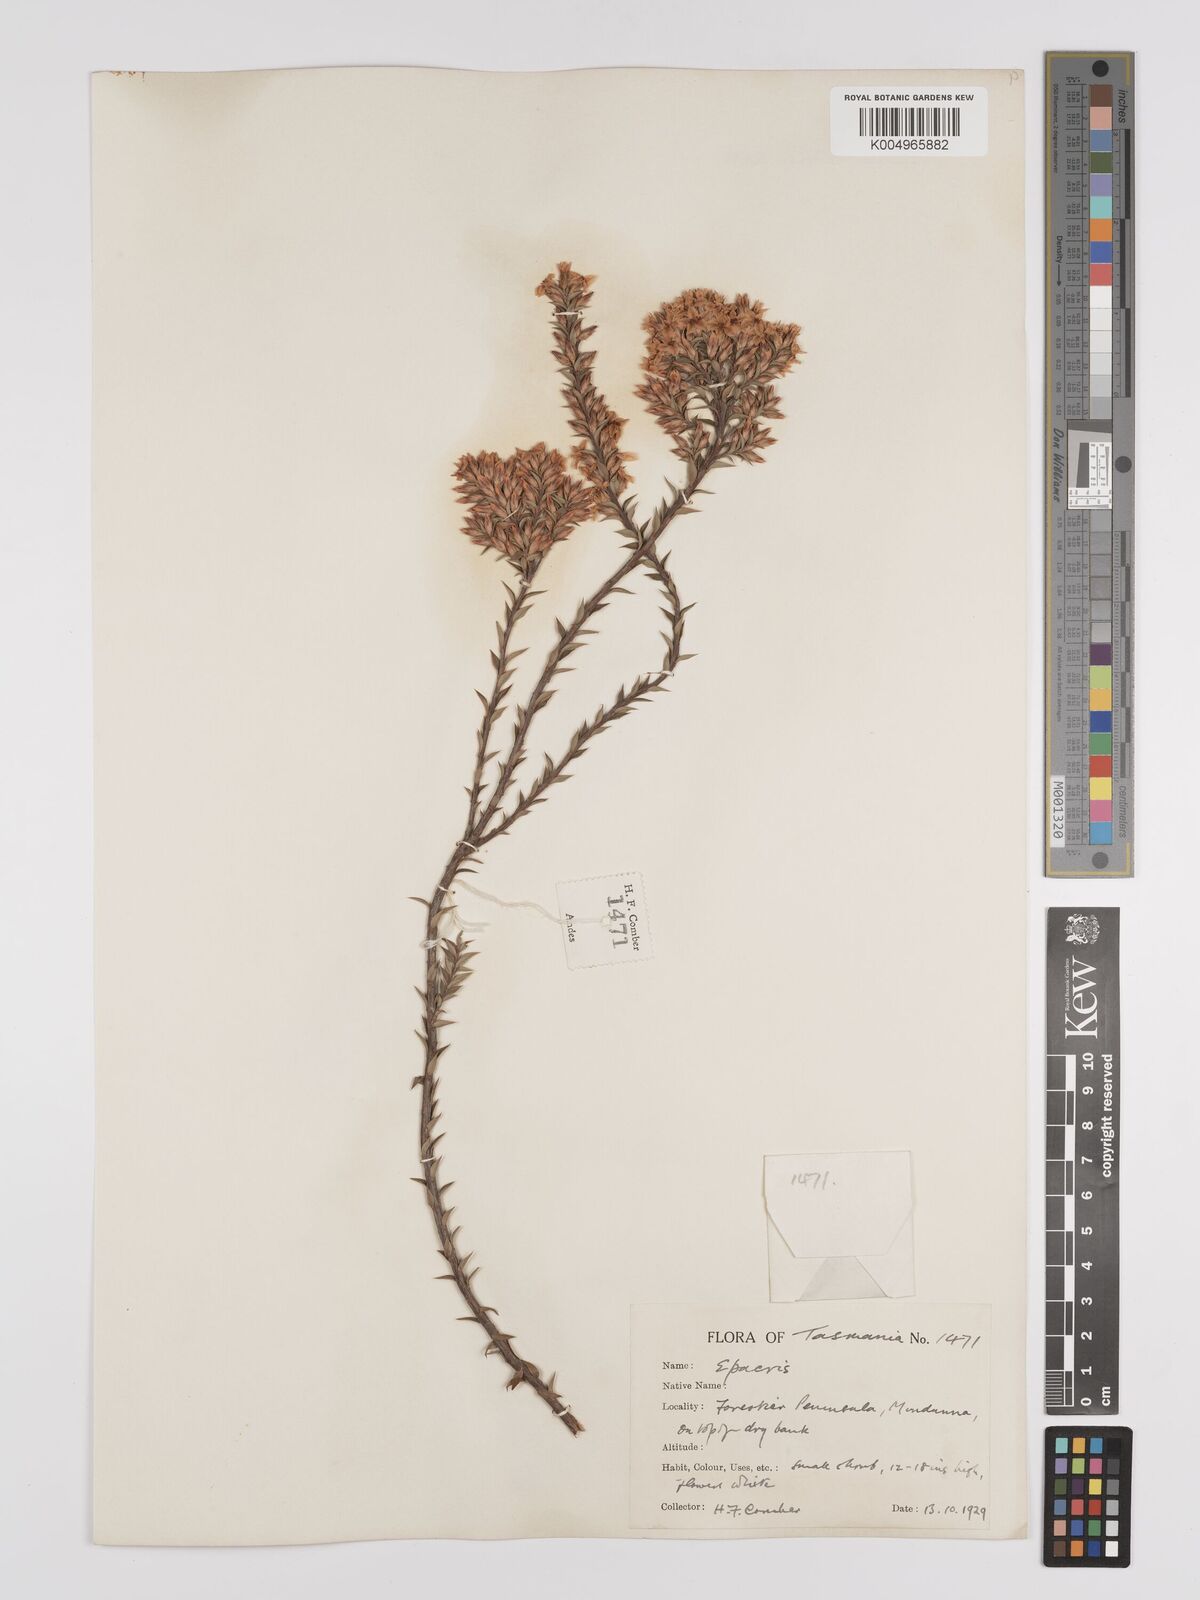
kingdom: Plantae
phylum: Tracheophyta
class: Magnoliopsida
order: Ericales
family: Ericaceae
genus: Epacris
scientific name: Epacris comberi
